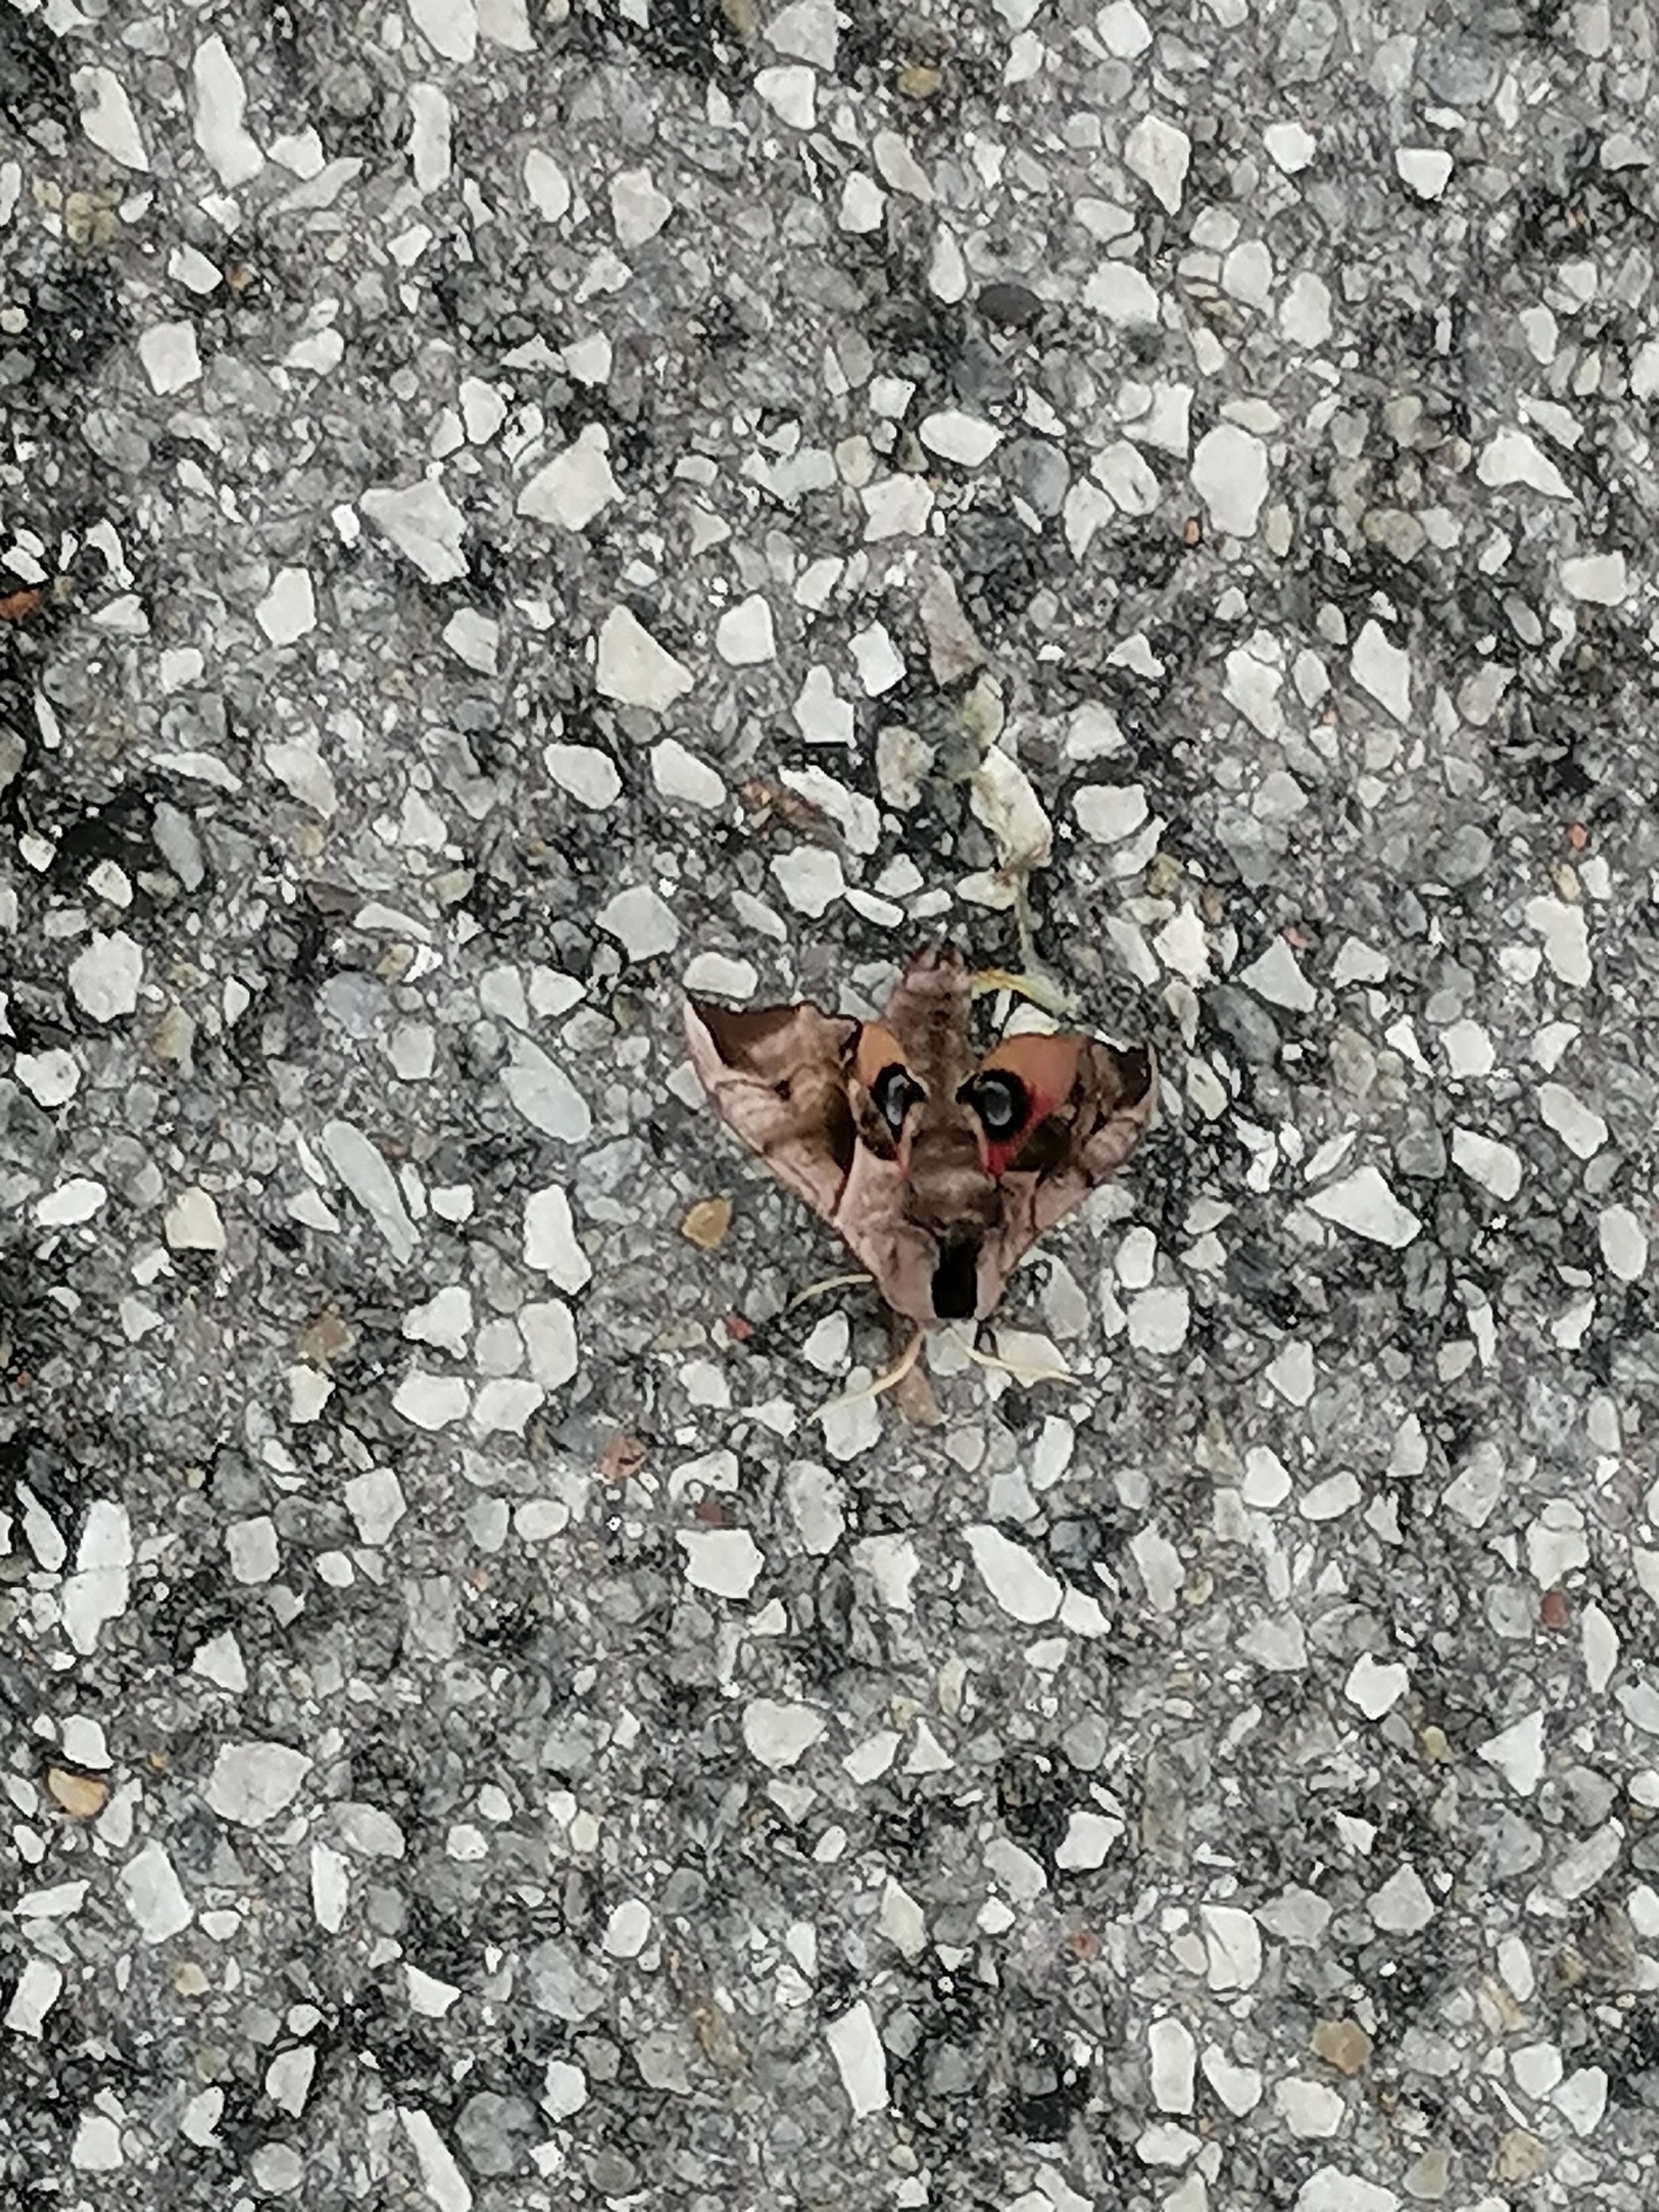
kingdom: Animalia
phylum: Arthropoda
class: Insecta
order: Lepidoptera
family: Sphingidae
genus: Smerinthus
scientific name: Smerinthus ocellata
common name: Aftenpåfugleøje
